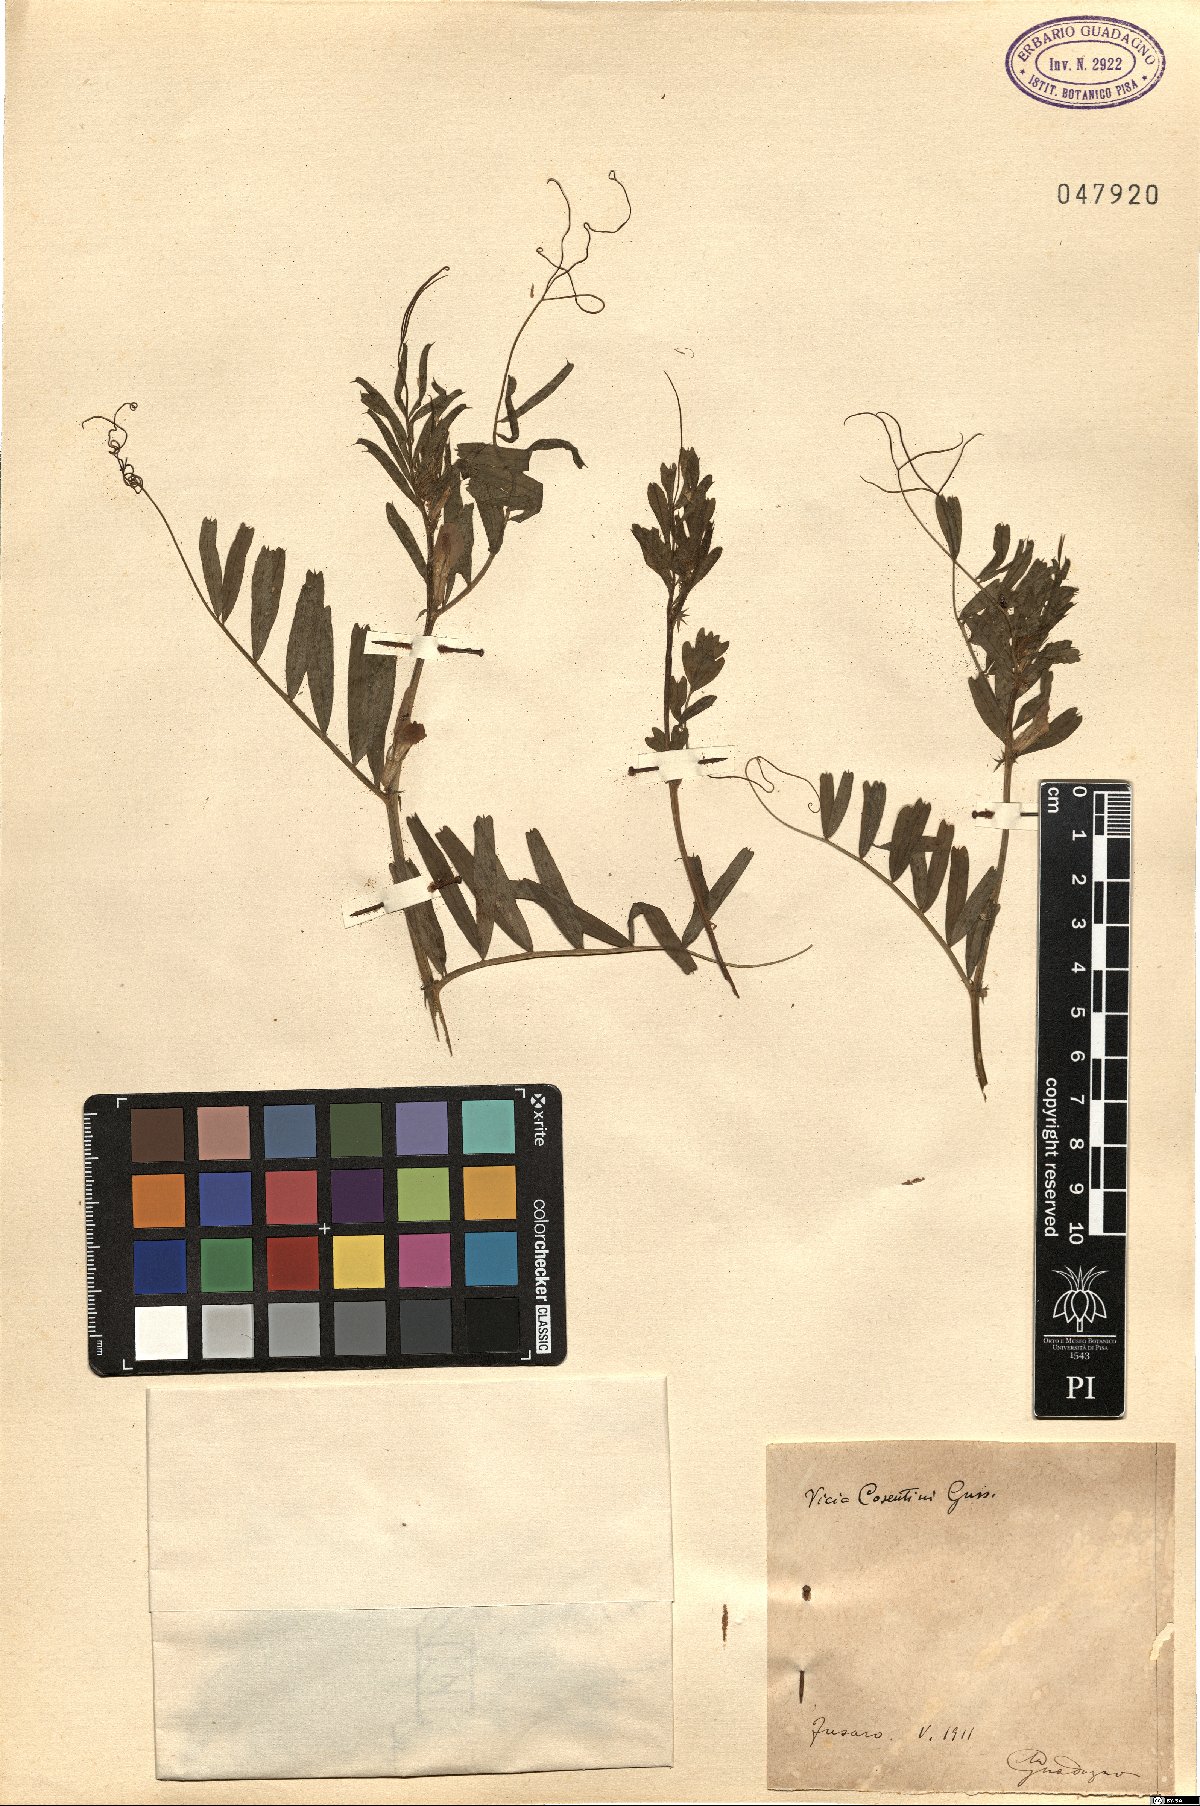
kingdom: Plantae
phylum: Tracheophyta
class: Magnoliopsida
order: Fabales
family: Fabaceae
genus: Vicia
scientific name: Vicia sativa
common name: Garden vetch
